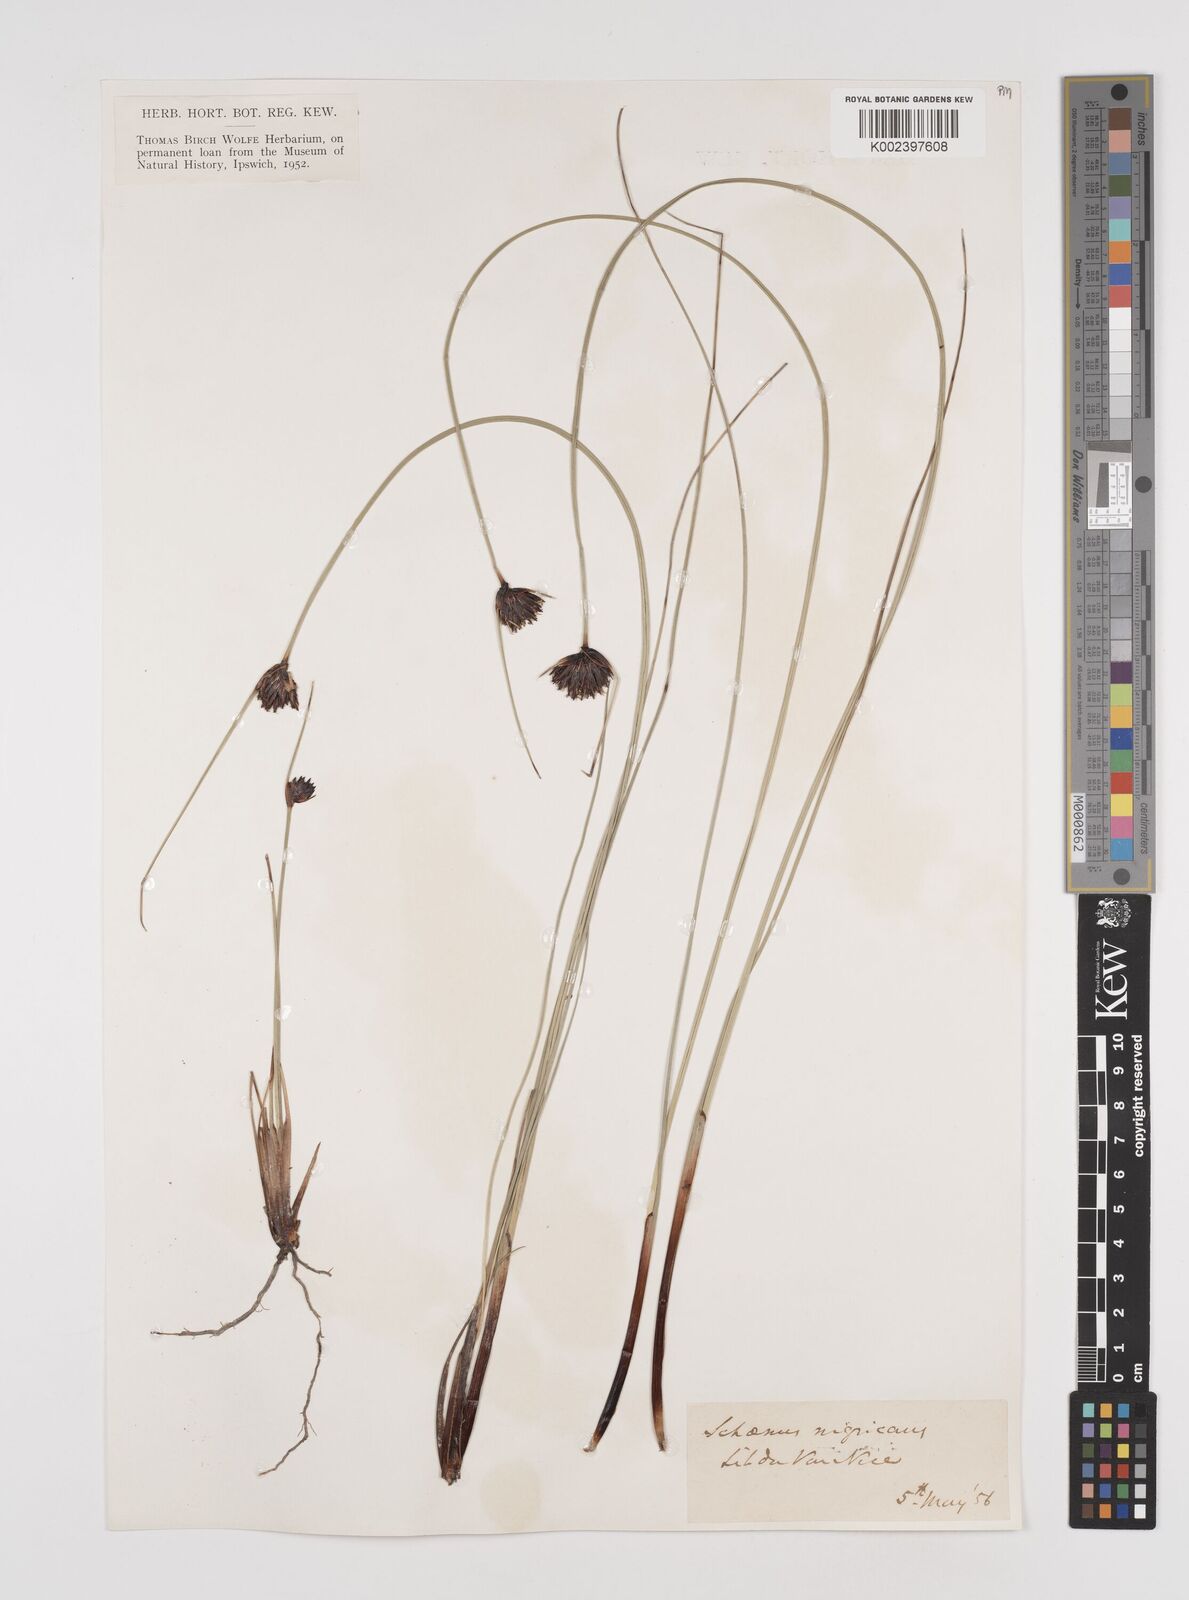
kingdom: Plantae
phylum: Tracheophyta
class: Liliopsida
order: Poales
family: Cyperaceae
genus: Schoenus
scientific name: Schoenus nigricans
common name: Black bog-rush
